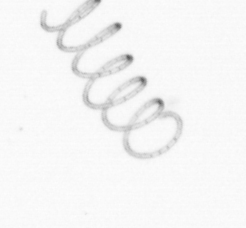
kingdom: Chromista
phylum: Ochrophyta
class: Bacillariophyceae
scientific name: Bacillariophyceae
